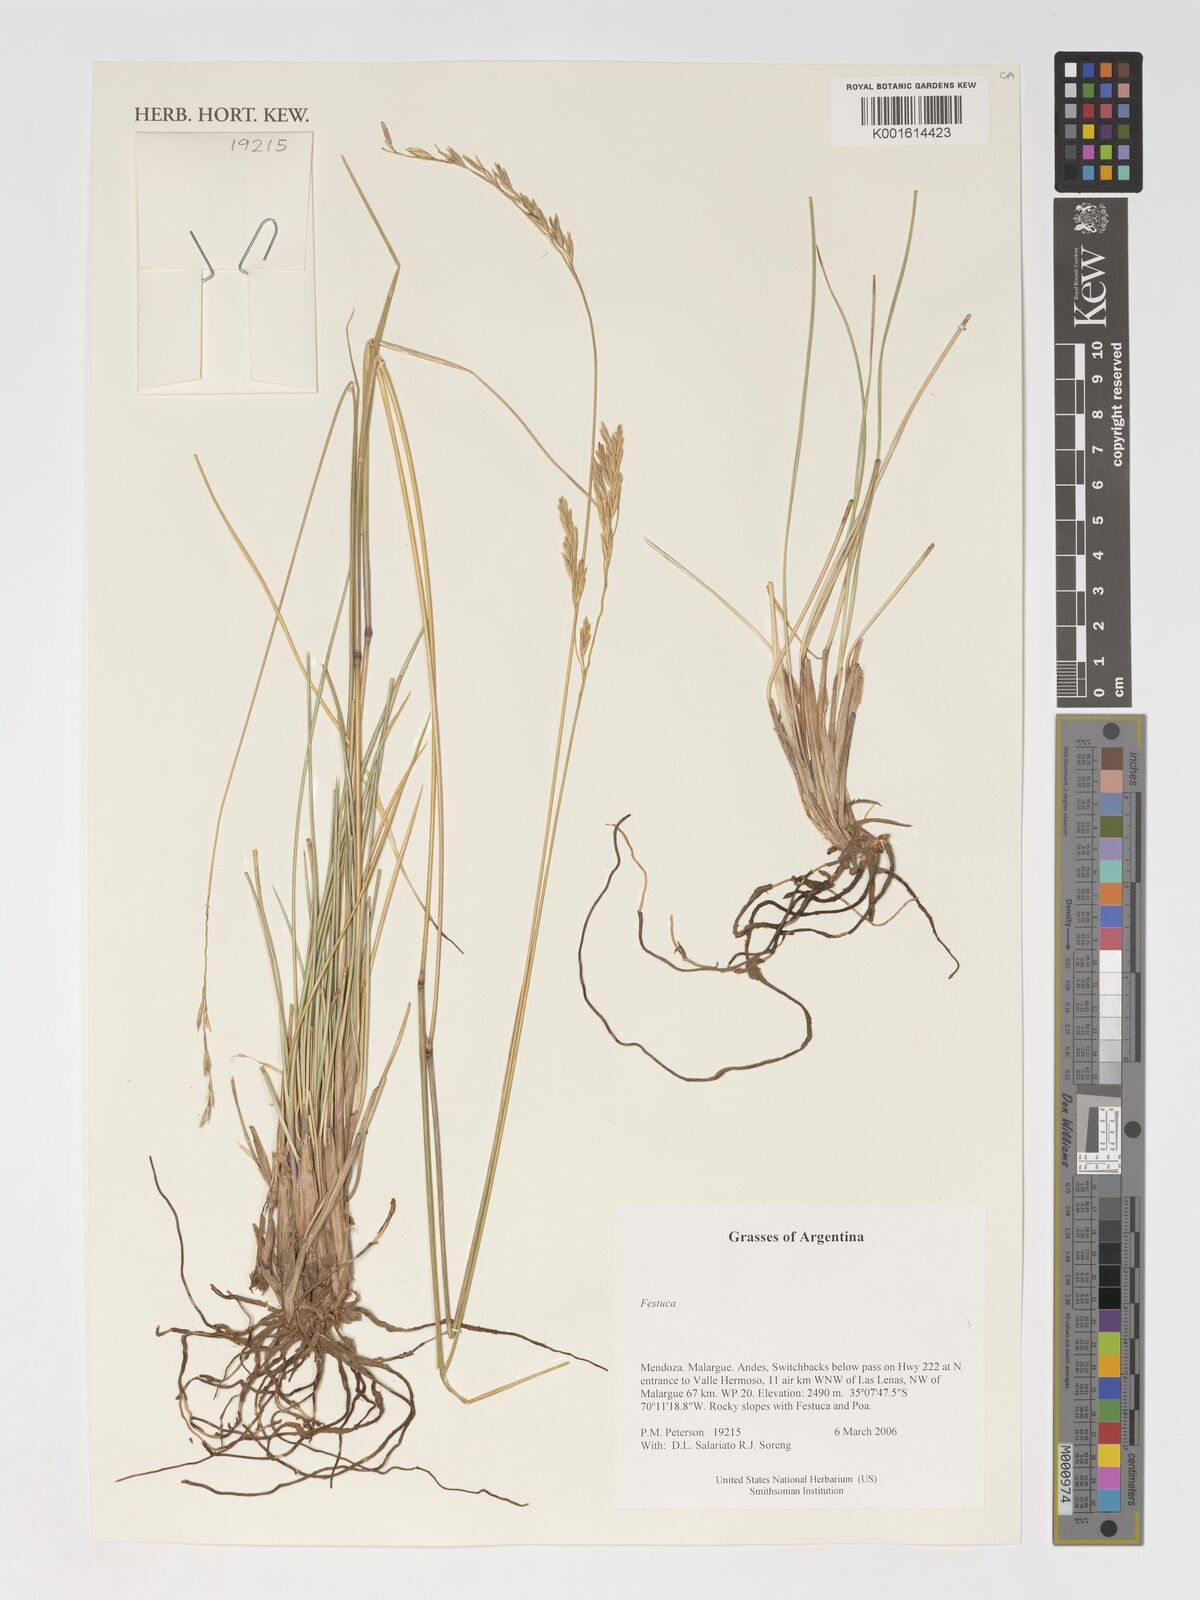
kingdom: Plantae
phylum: Tracheophyta
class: Liliopsida
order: Poales
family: Poaceae
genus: Festuca
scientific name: Festuca
